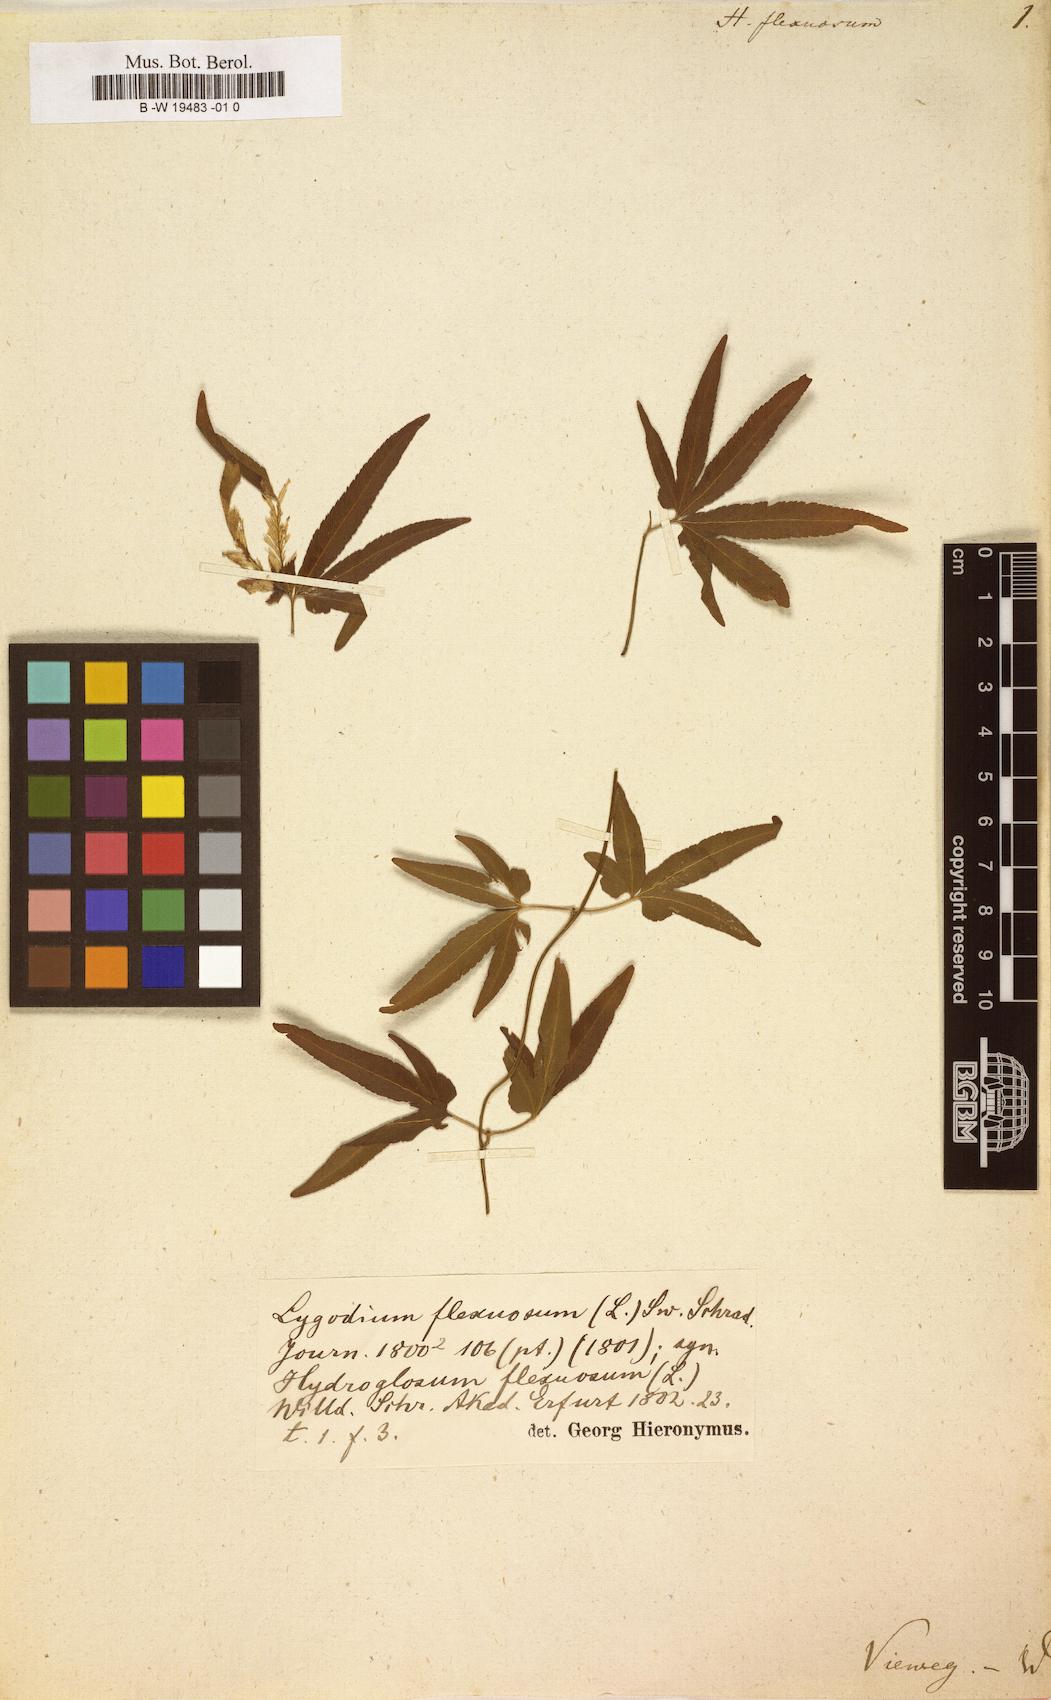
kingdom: Plantae
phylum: Tracheophyta
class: Polypodiopsida
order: Schizaeales
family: Lygodiaceae
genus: Lygodium
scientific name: Lygodium flexuosum
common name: Maidenhair creeper
